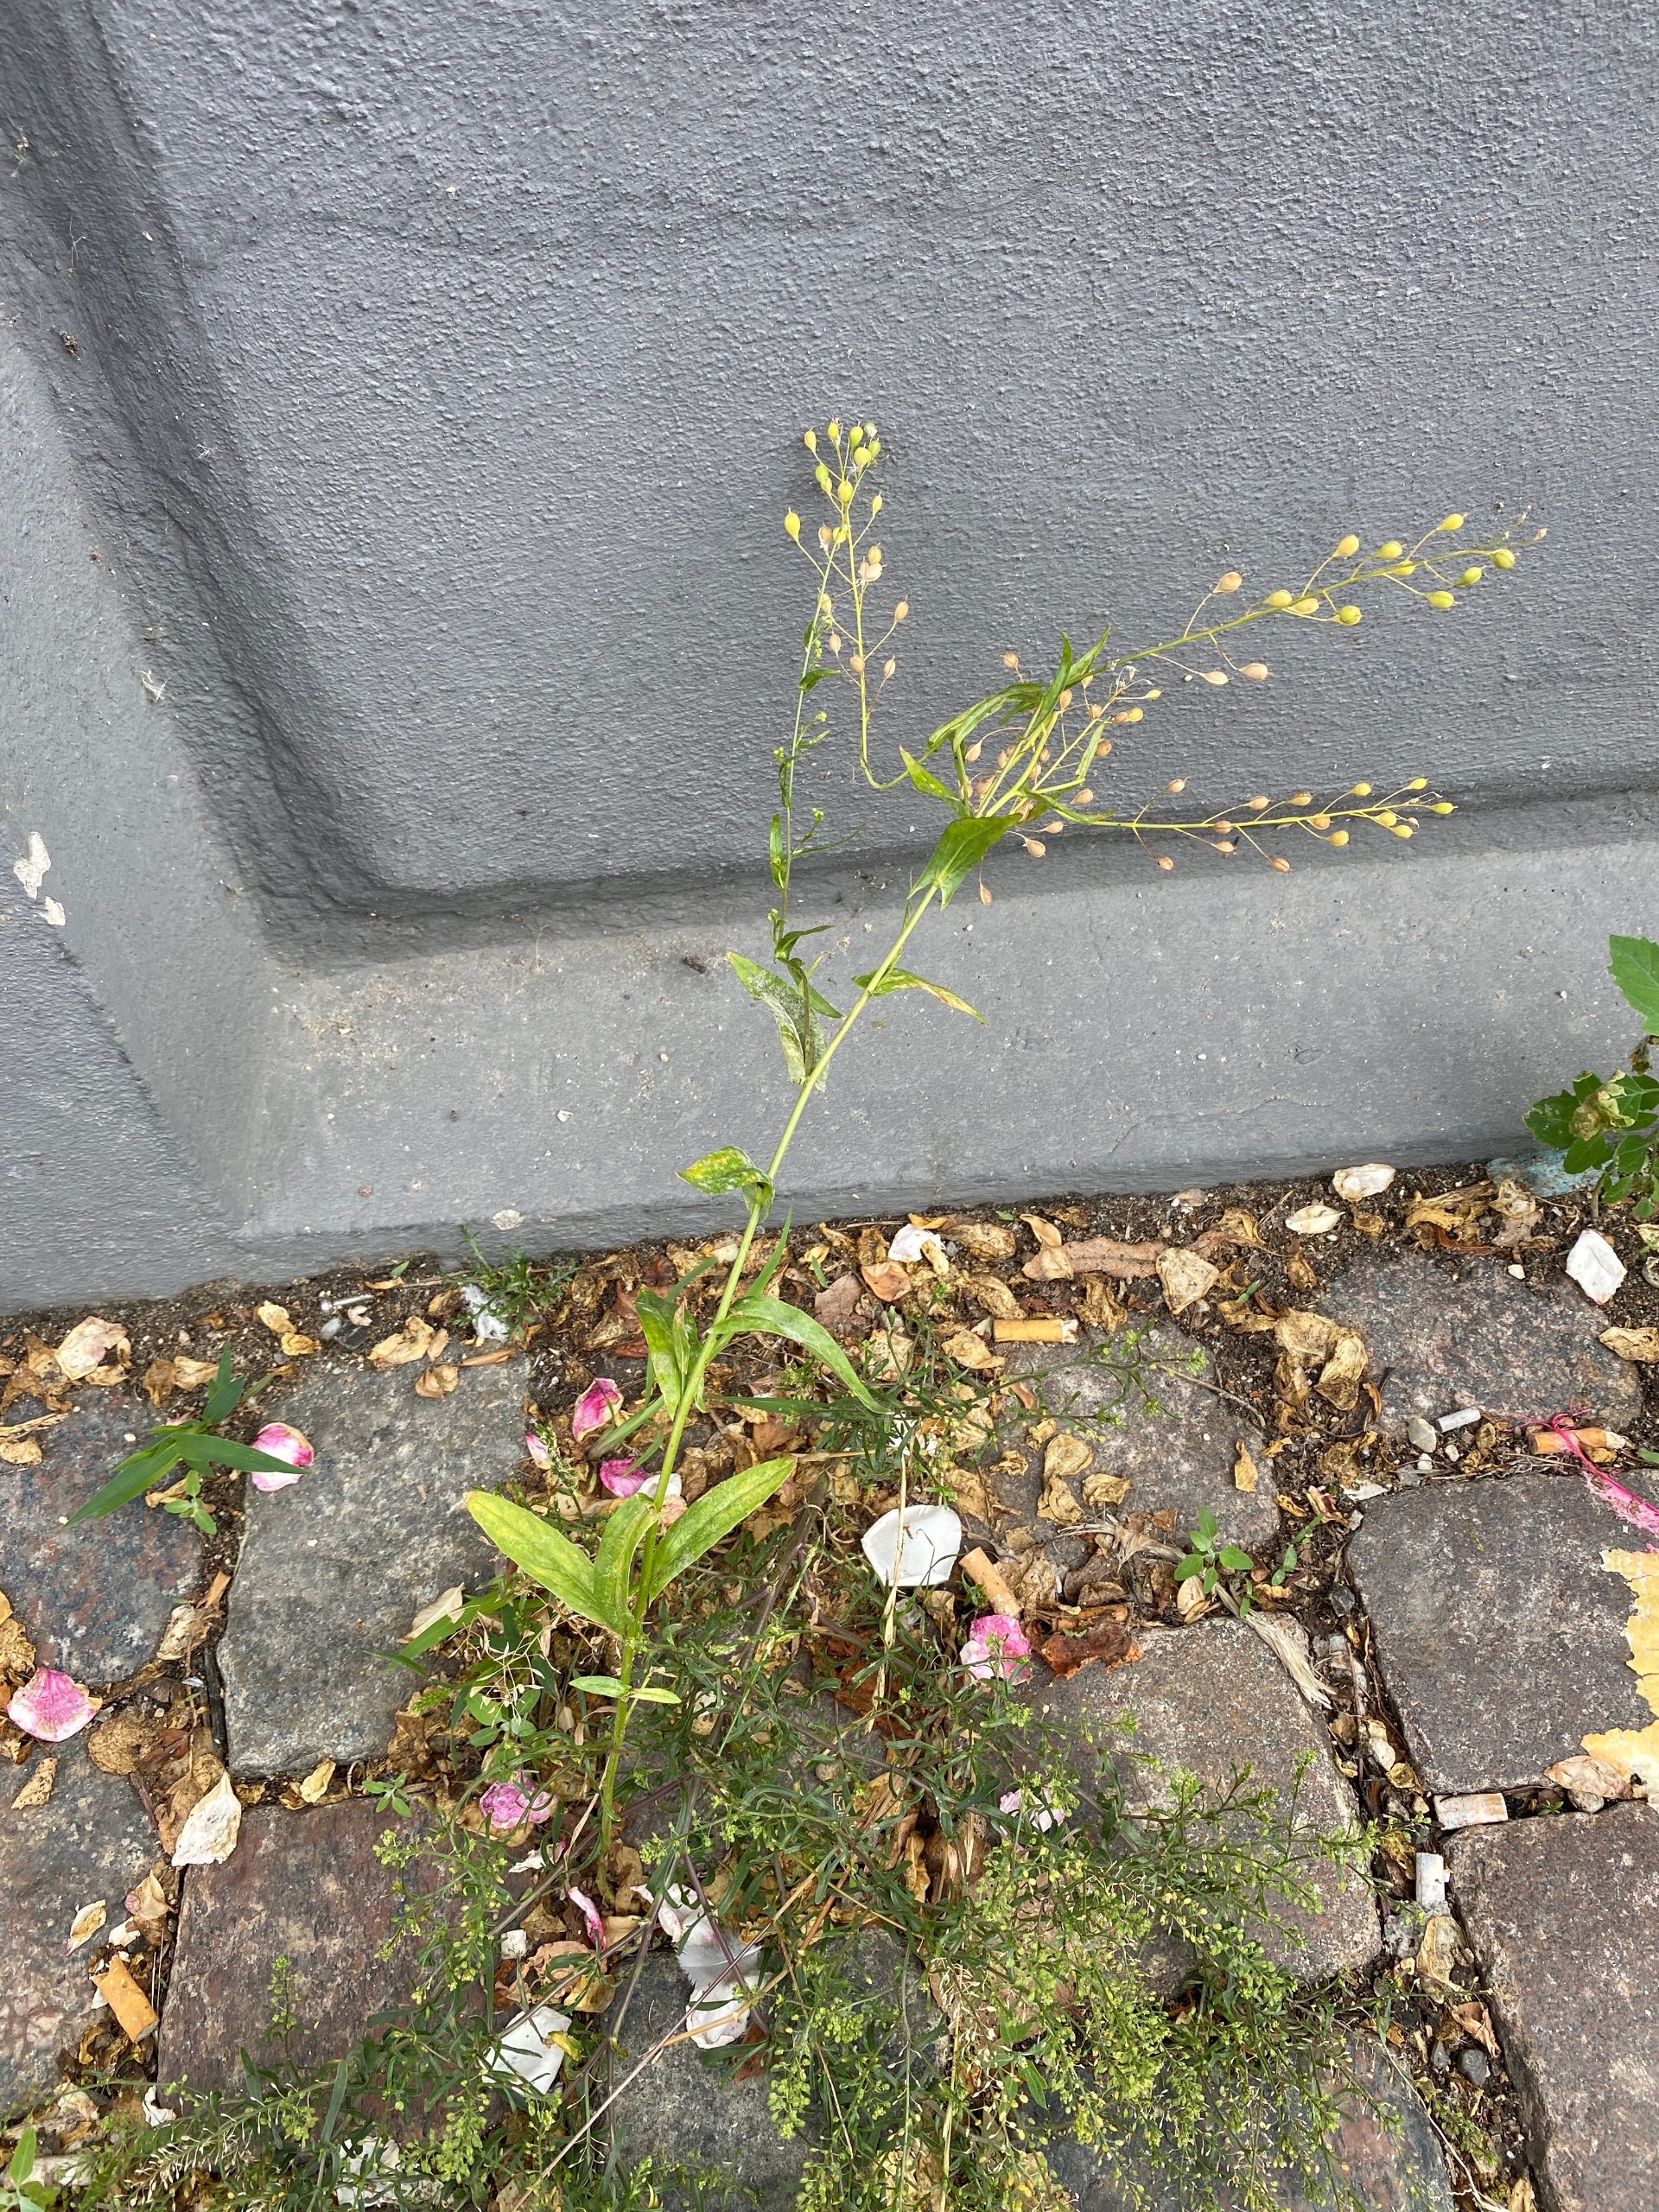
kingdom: Plantae
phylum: Tracheophyta
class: Magnoliopsida
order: Brassicales
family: Brassicaceae
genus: Camelina
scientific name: Camelina sativa
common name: Sæd-dodder
